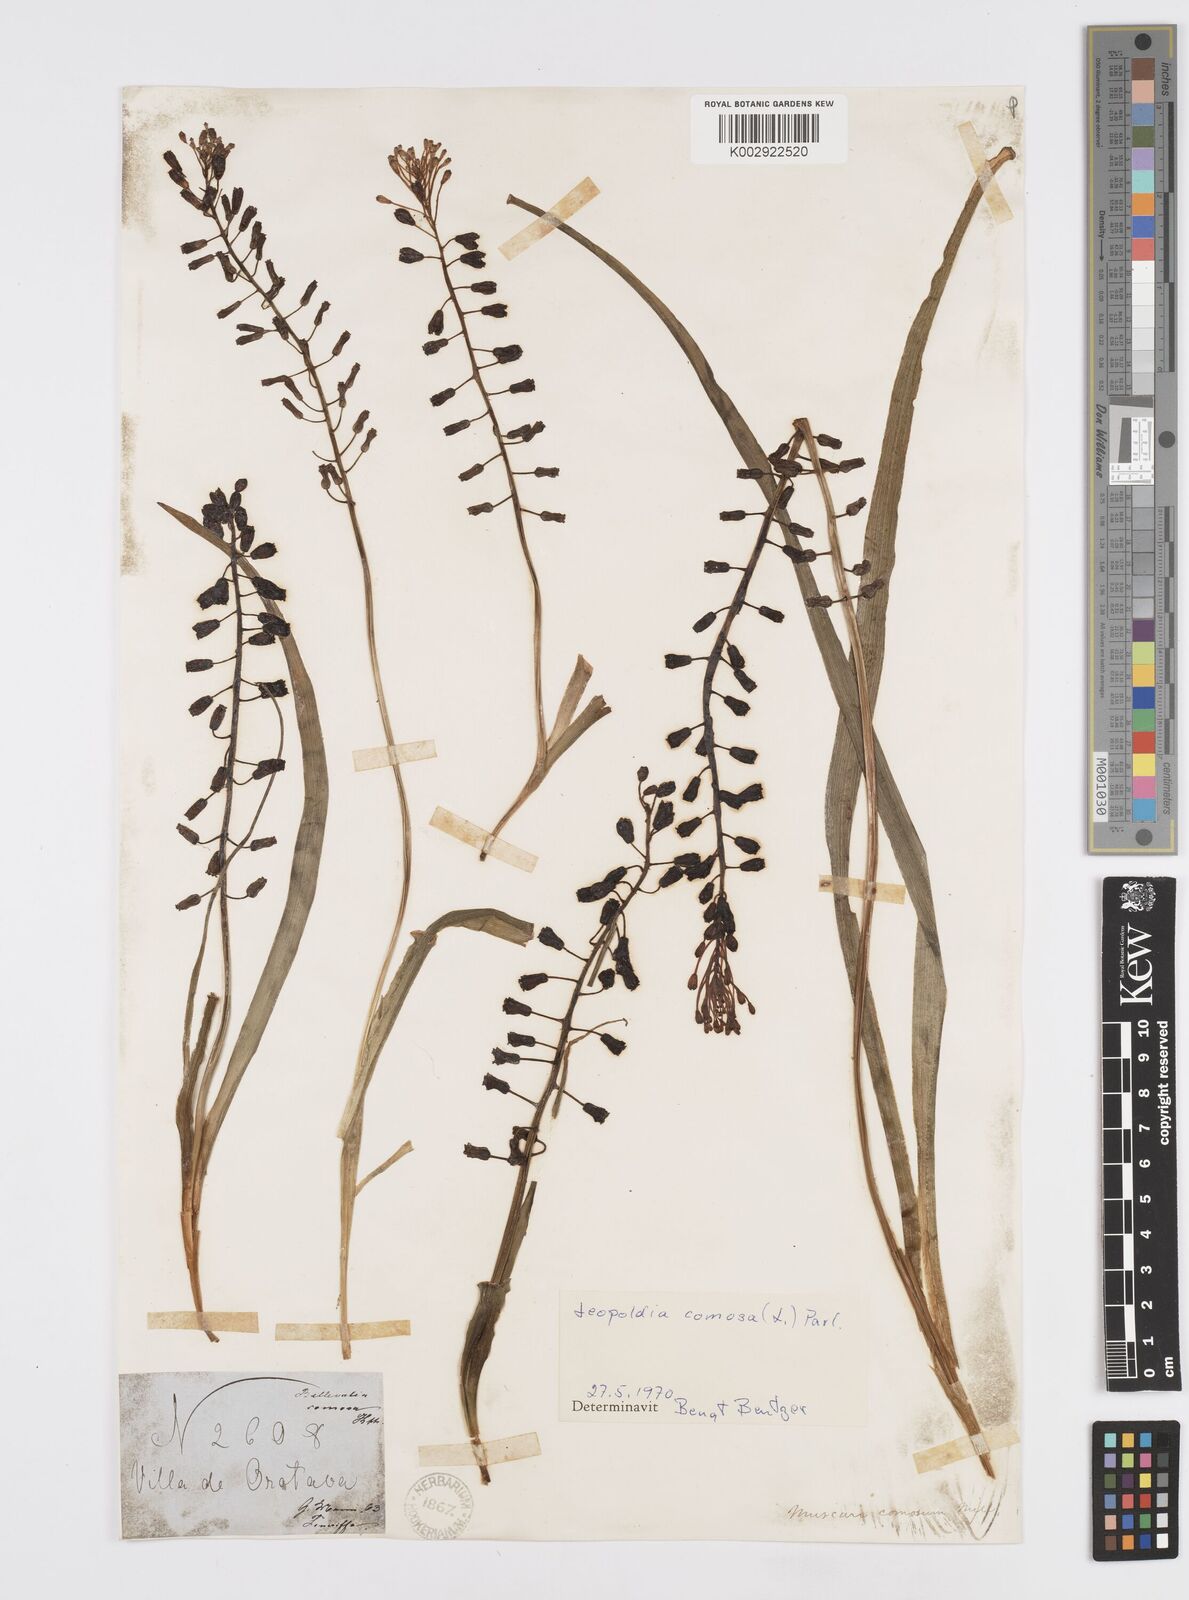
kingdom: Plantae
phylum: Tracheophyta
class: Liliopsida
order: Asparagales
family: Asparagaceae
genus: Muscari
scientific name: Muscari comosum
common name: Tassel hyacinth
